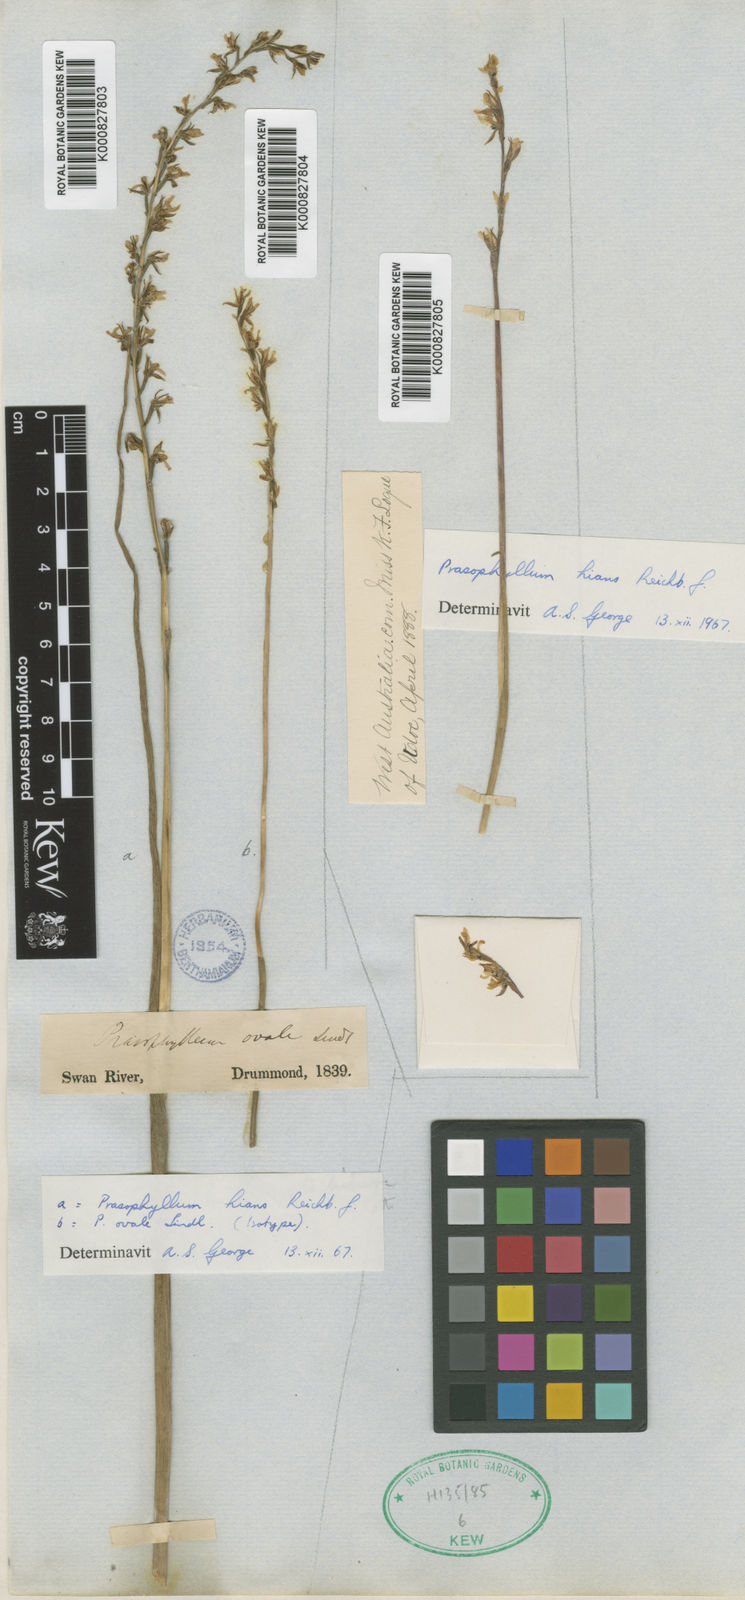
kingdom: Plantae
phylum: Tracheophyta
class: Liliopsida
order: Asparagales
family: Orchidaceae
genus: Prasophyllum
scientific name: Prasophyllum plumiforme
